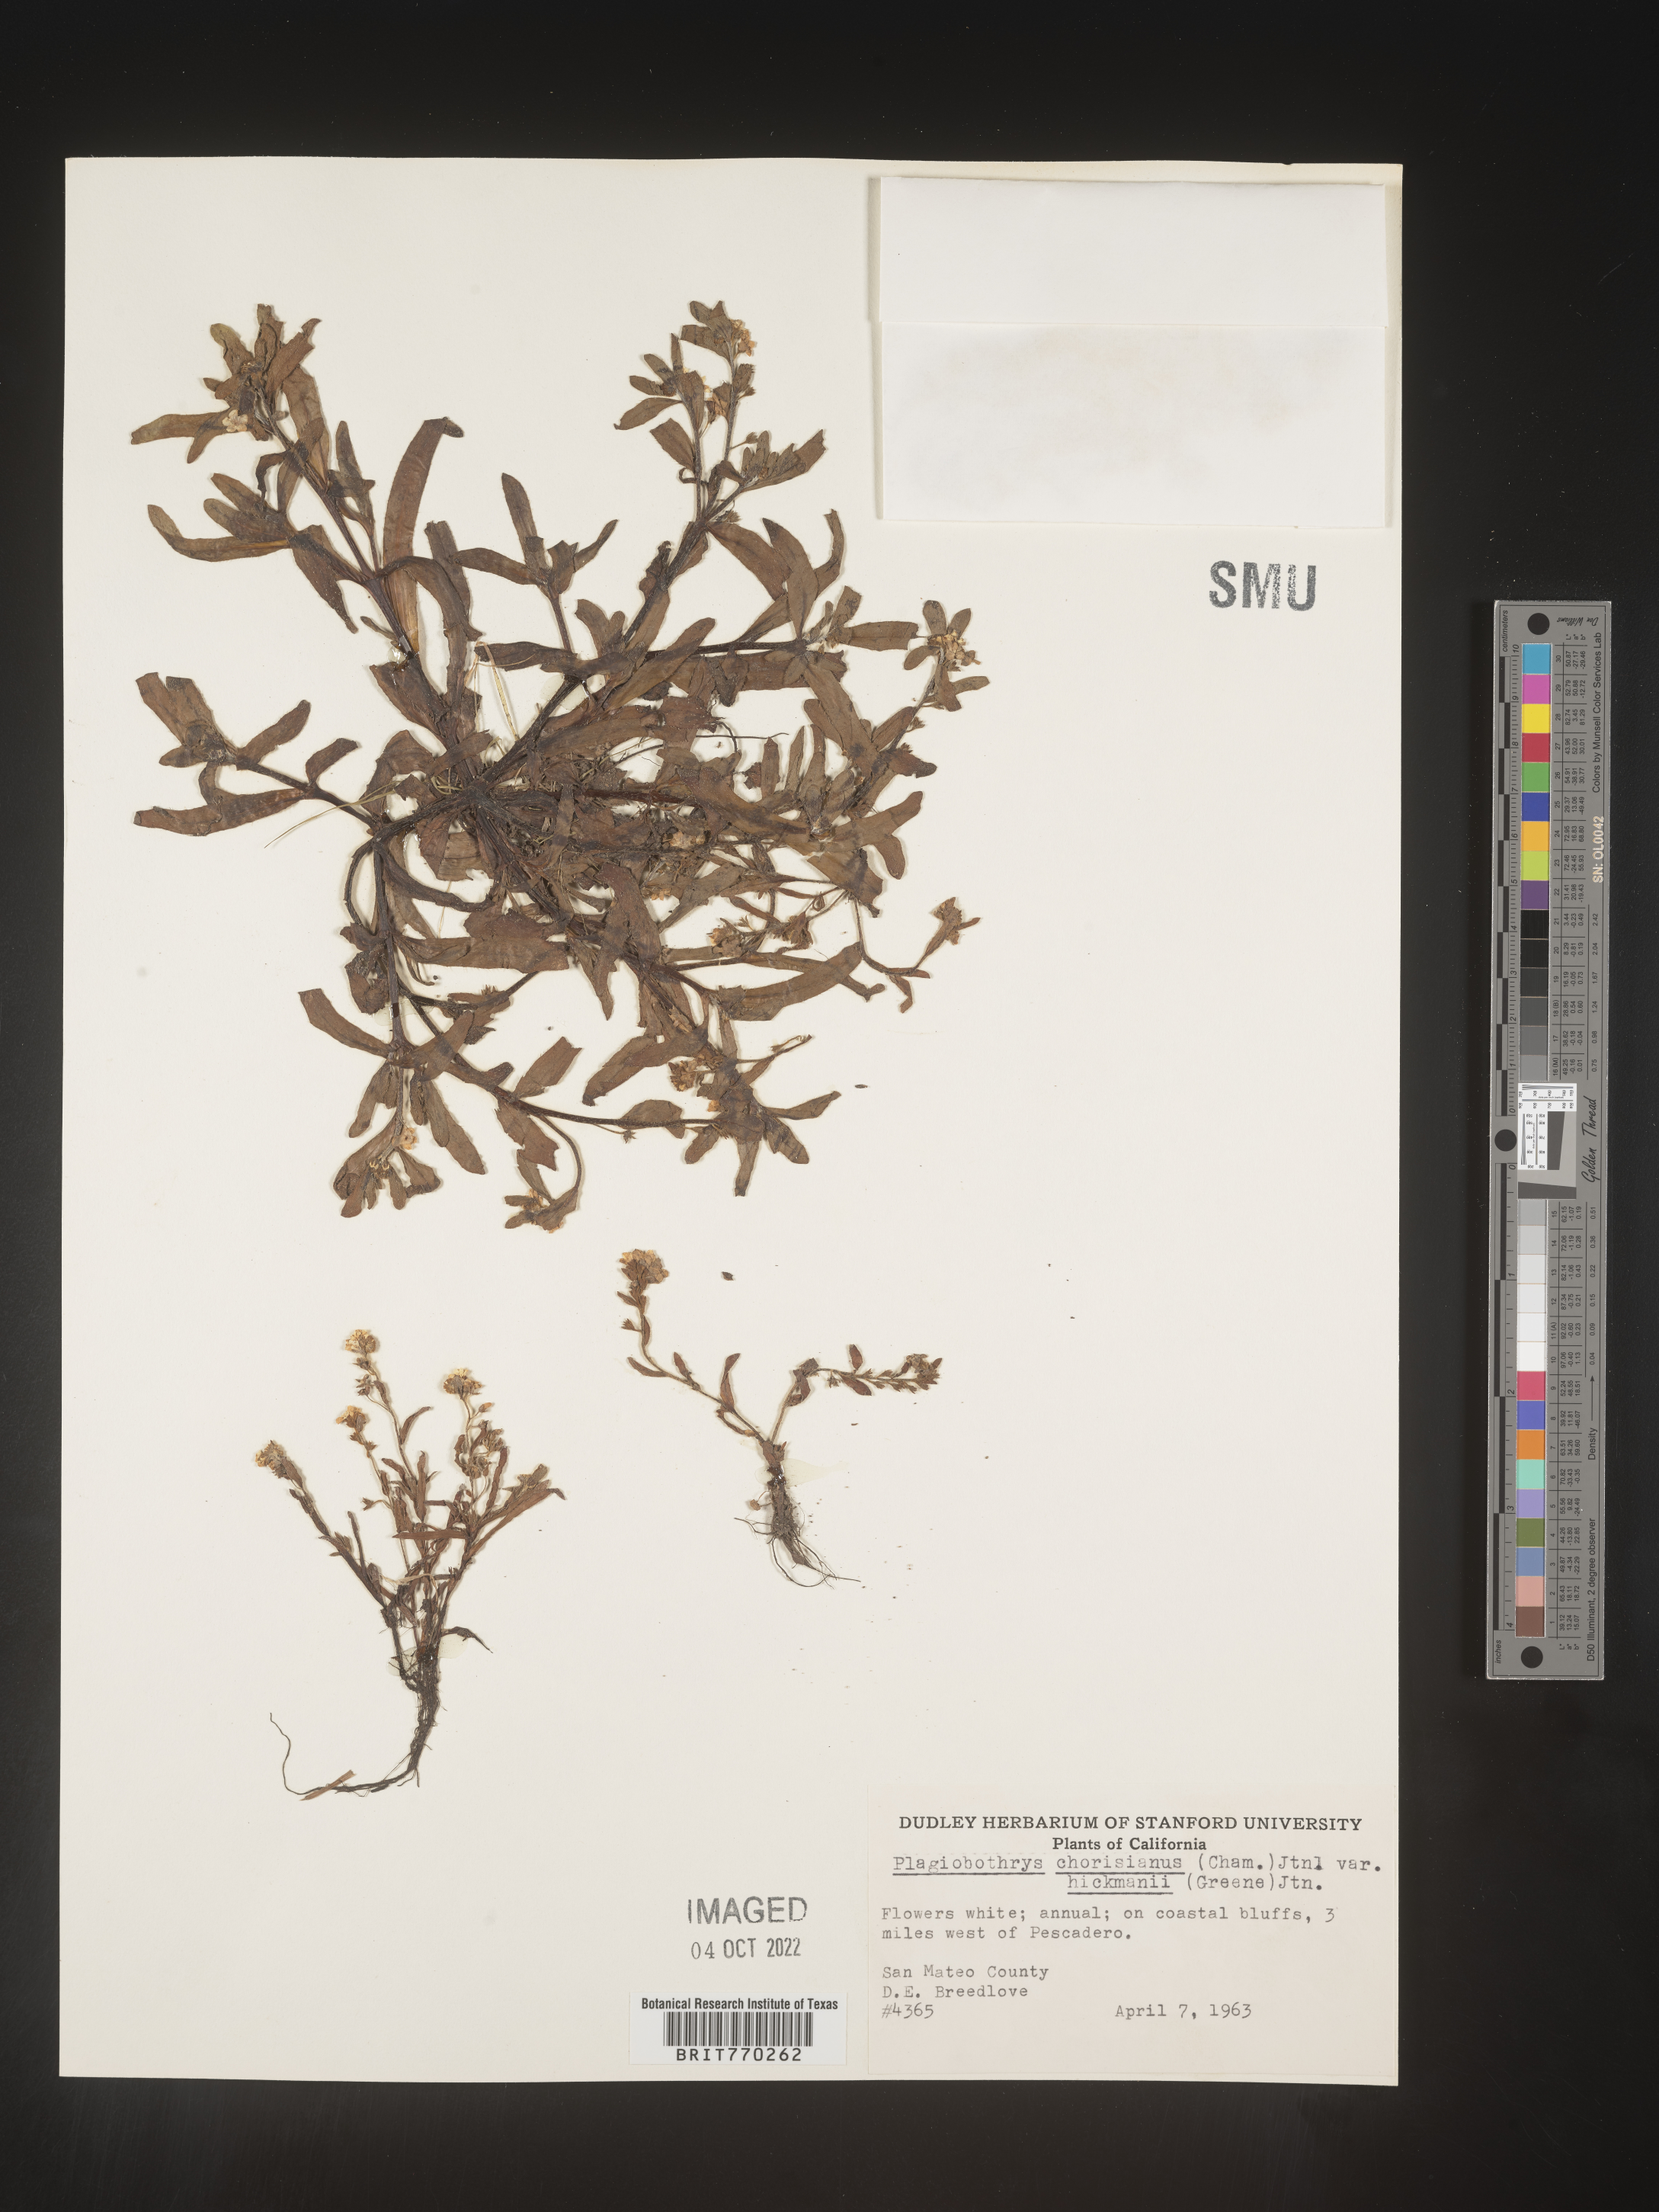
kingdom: Plantae
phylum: Tracheophyta
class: Magnoliopsida
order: Boraginales
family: Boraginaceae
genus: Plagiobothrys
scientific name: Plagiobothrys
